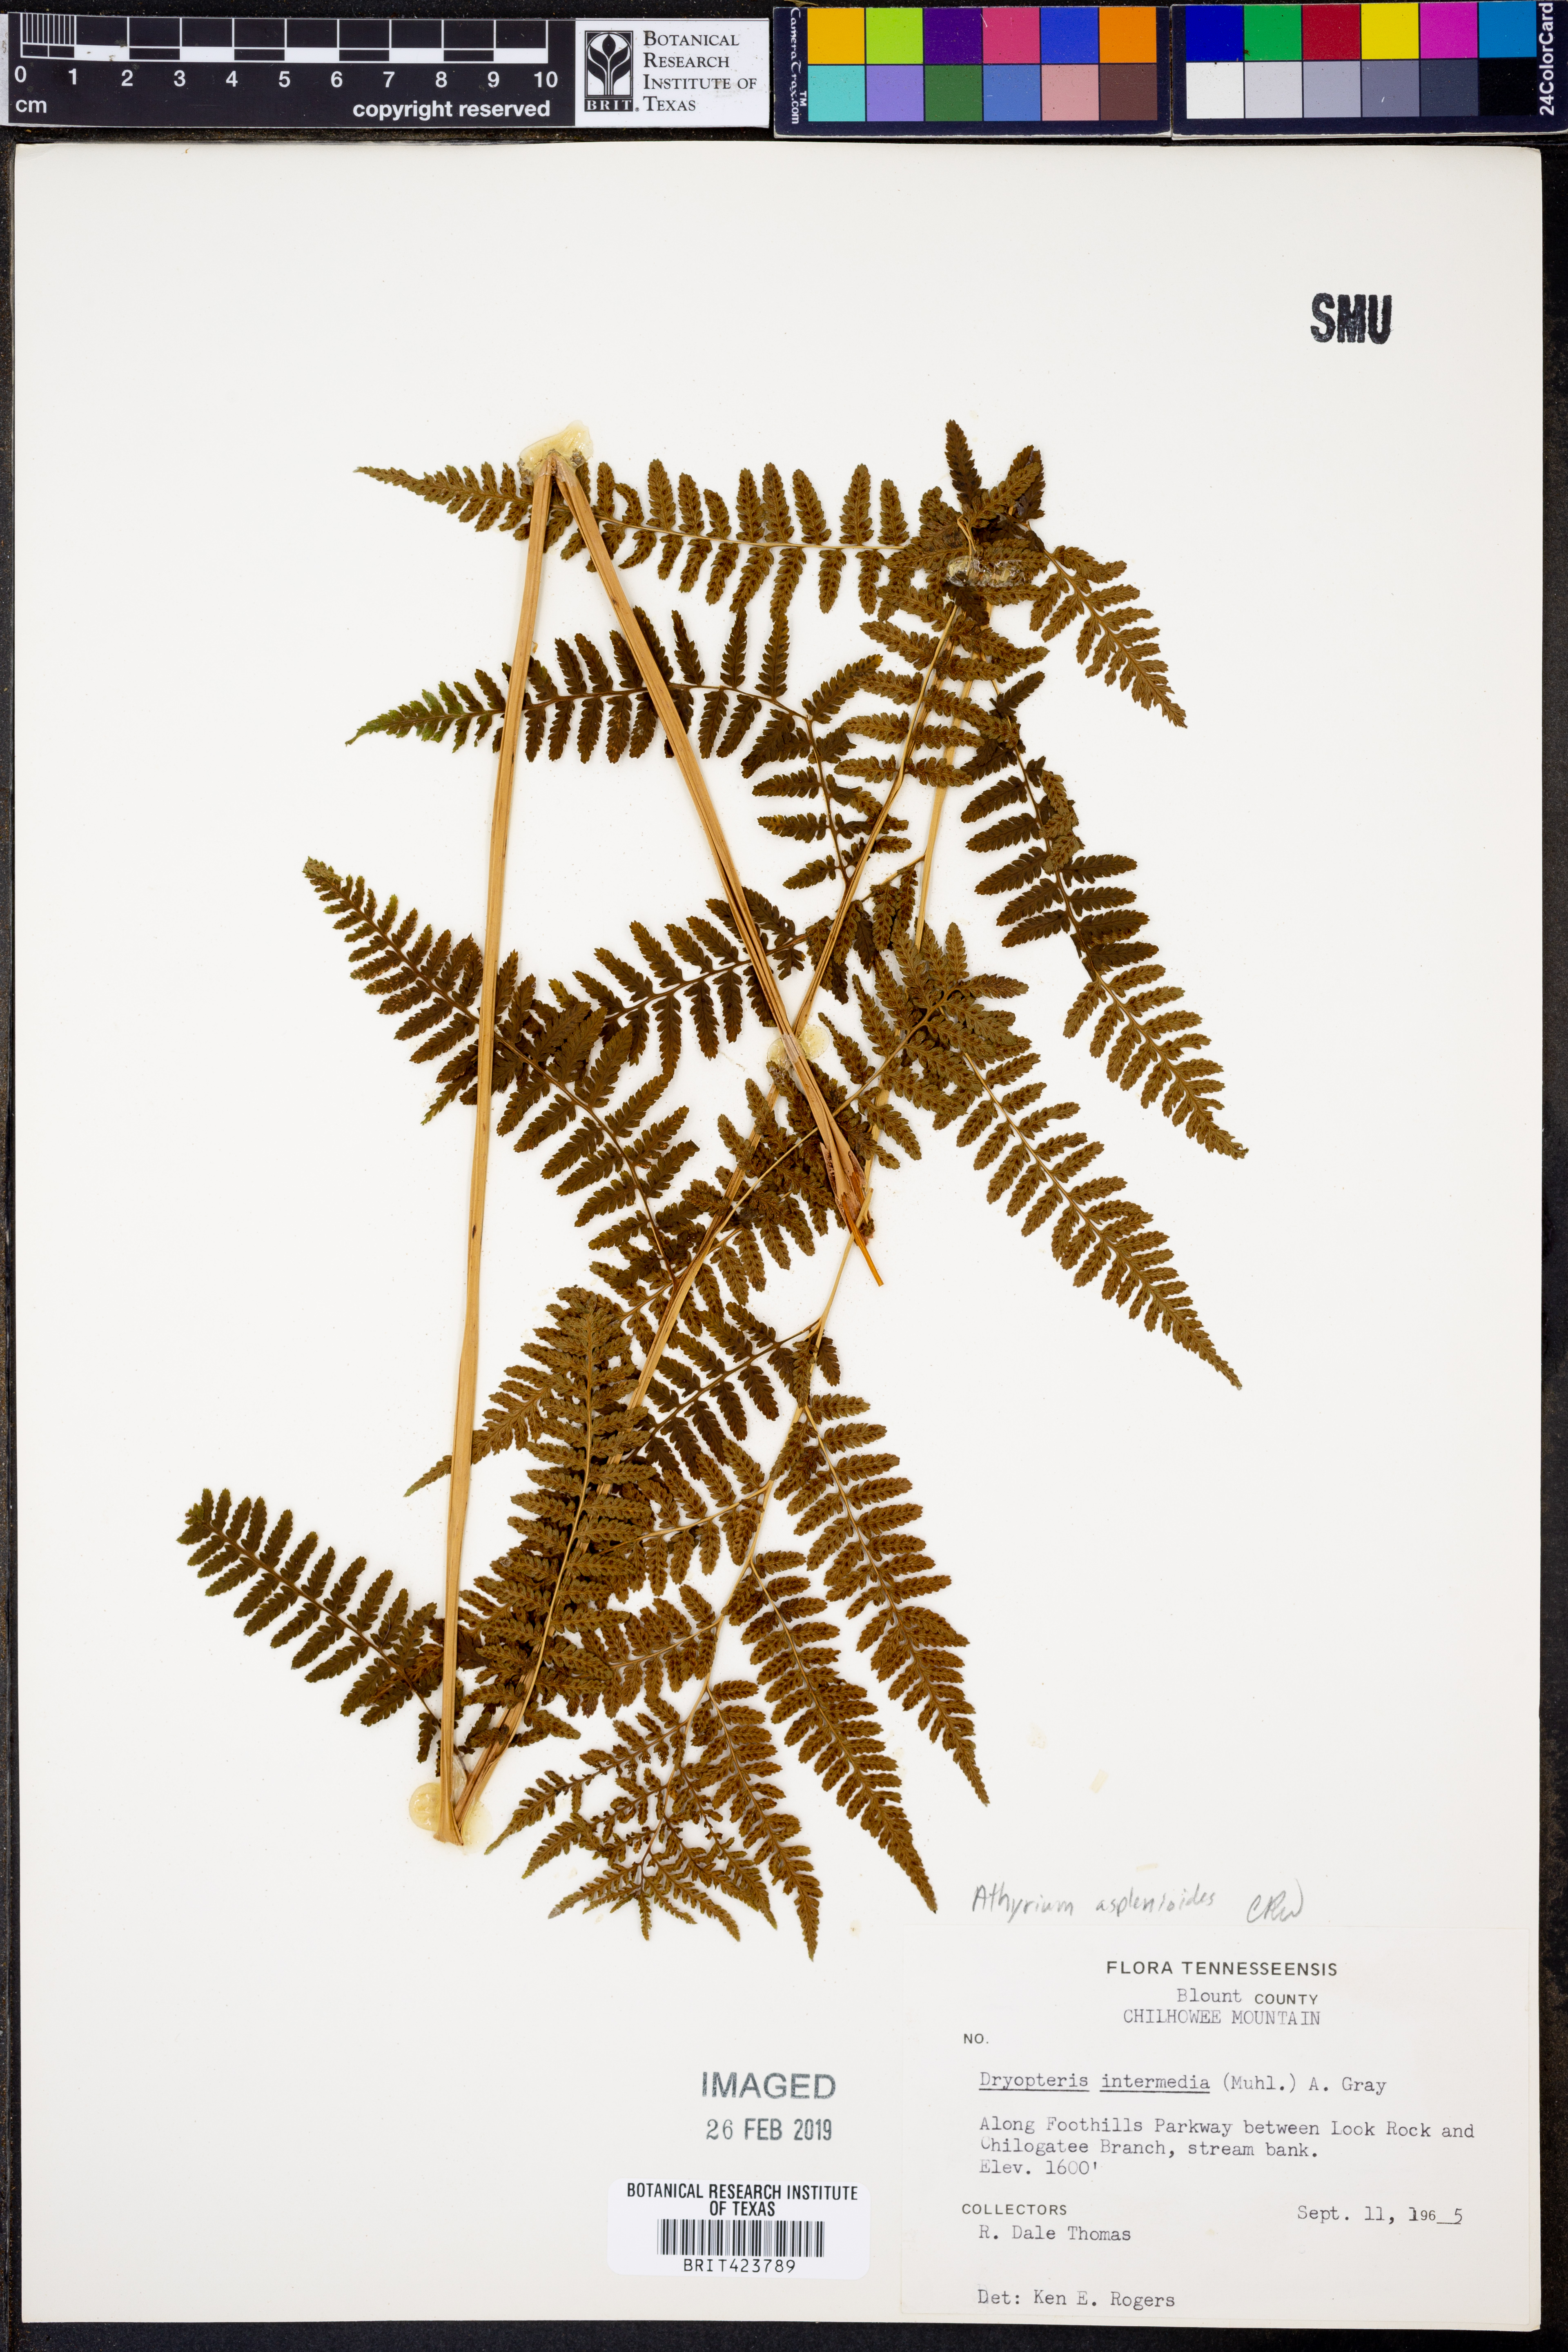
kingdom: Plantae
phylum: Tracheophyta
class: Polypodiopsida
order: Polypodiales
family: Athyriaceae
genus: Athyrium
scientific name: Athyrium asplenioides
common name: Southern lady fern
